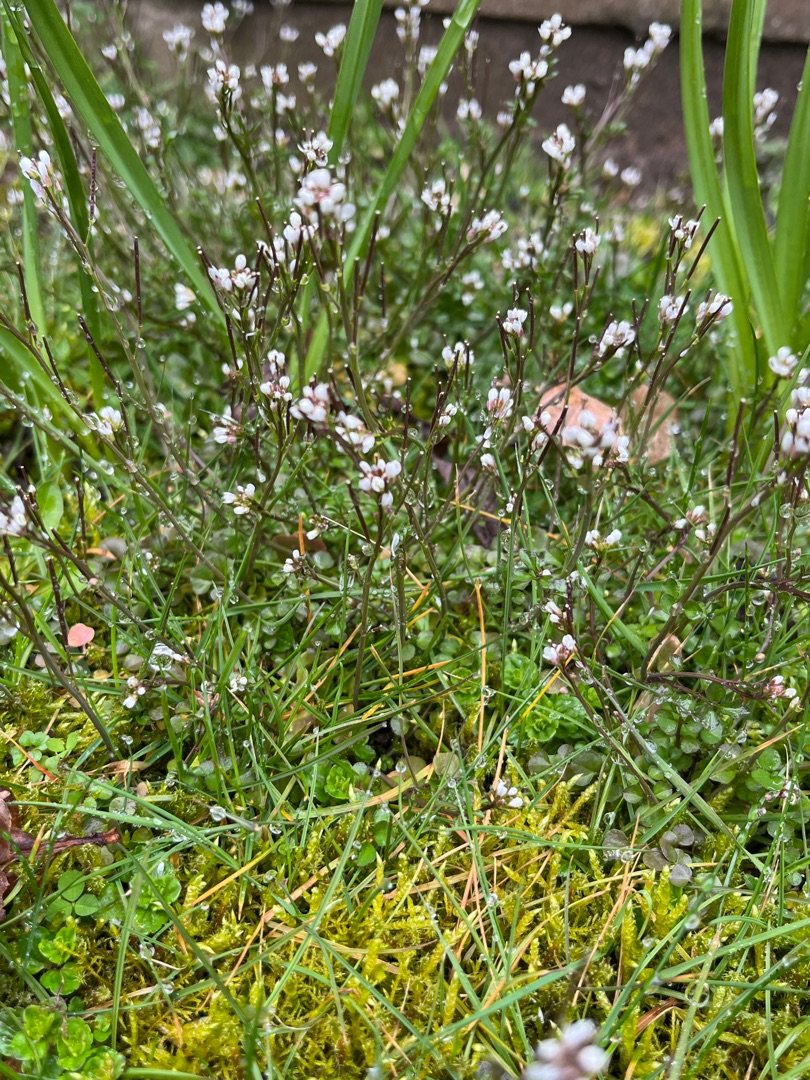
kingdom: Plantae
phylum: Tracheophyta
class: Magnoliopsida
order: Brassicales
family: Brassicaceae
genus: Cardamine
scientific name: Cardamine hirsuta
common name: Roset-springklap
